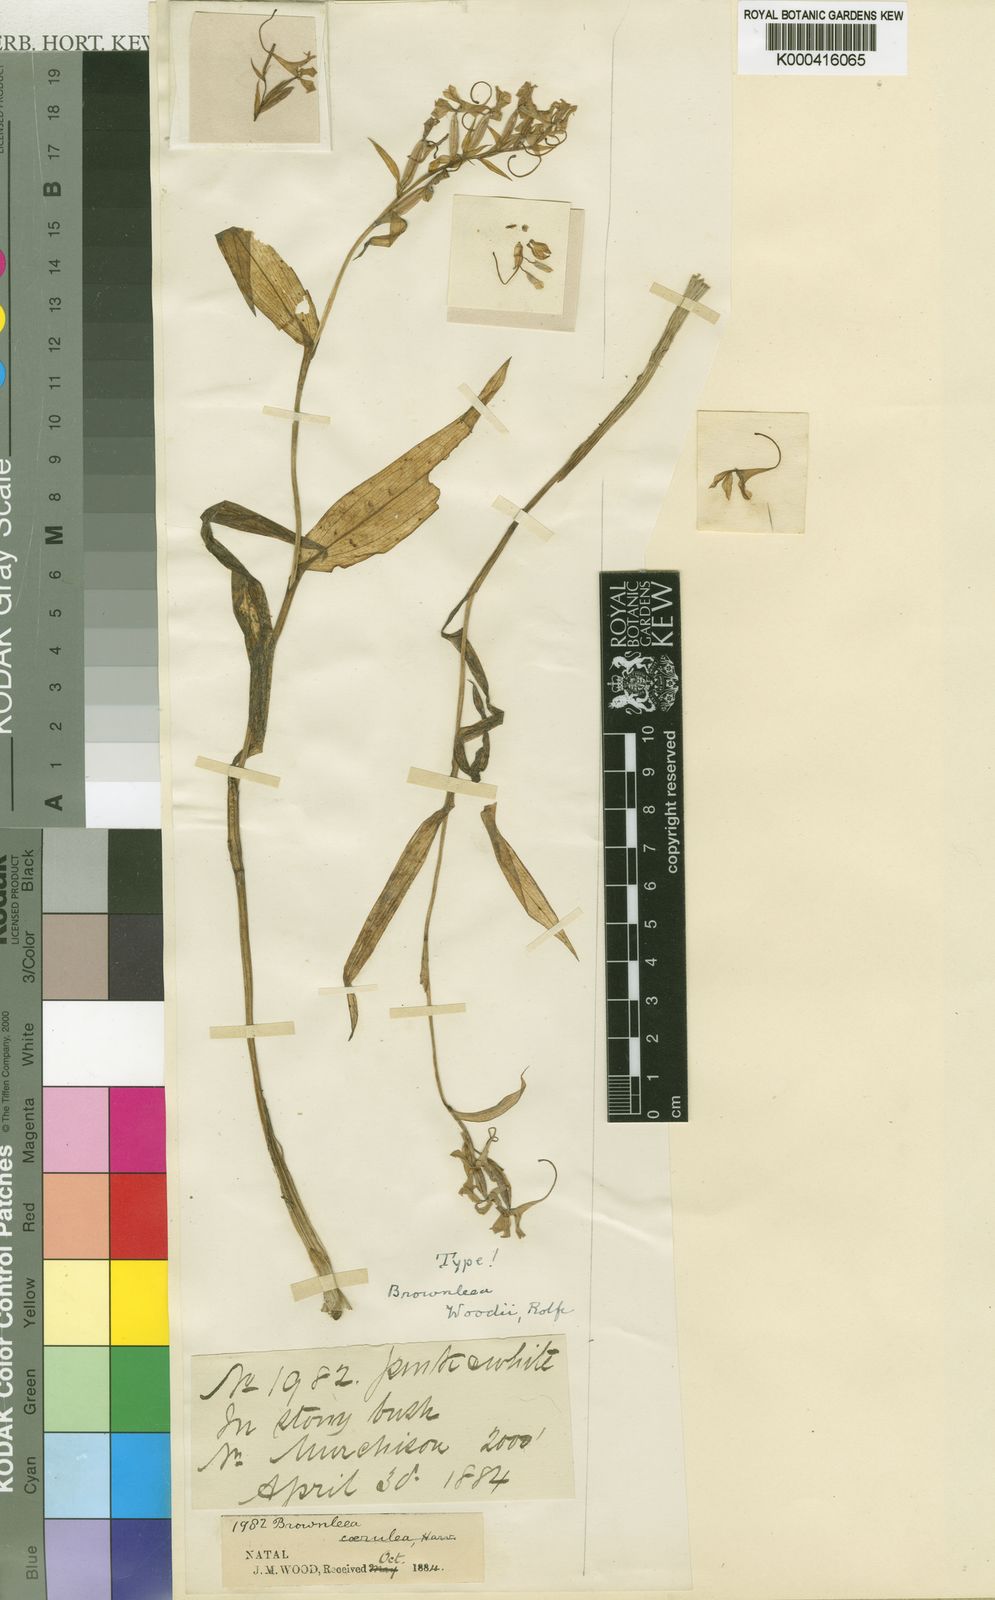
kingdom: Plantae
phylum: Tracheophyta
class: Liliopsida
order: Asparagales
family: Orchidaceae
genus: Brownleea
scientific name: Brownleea coerulea
